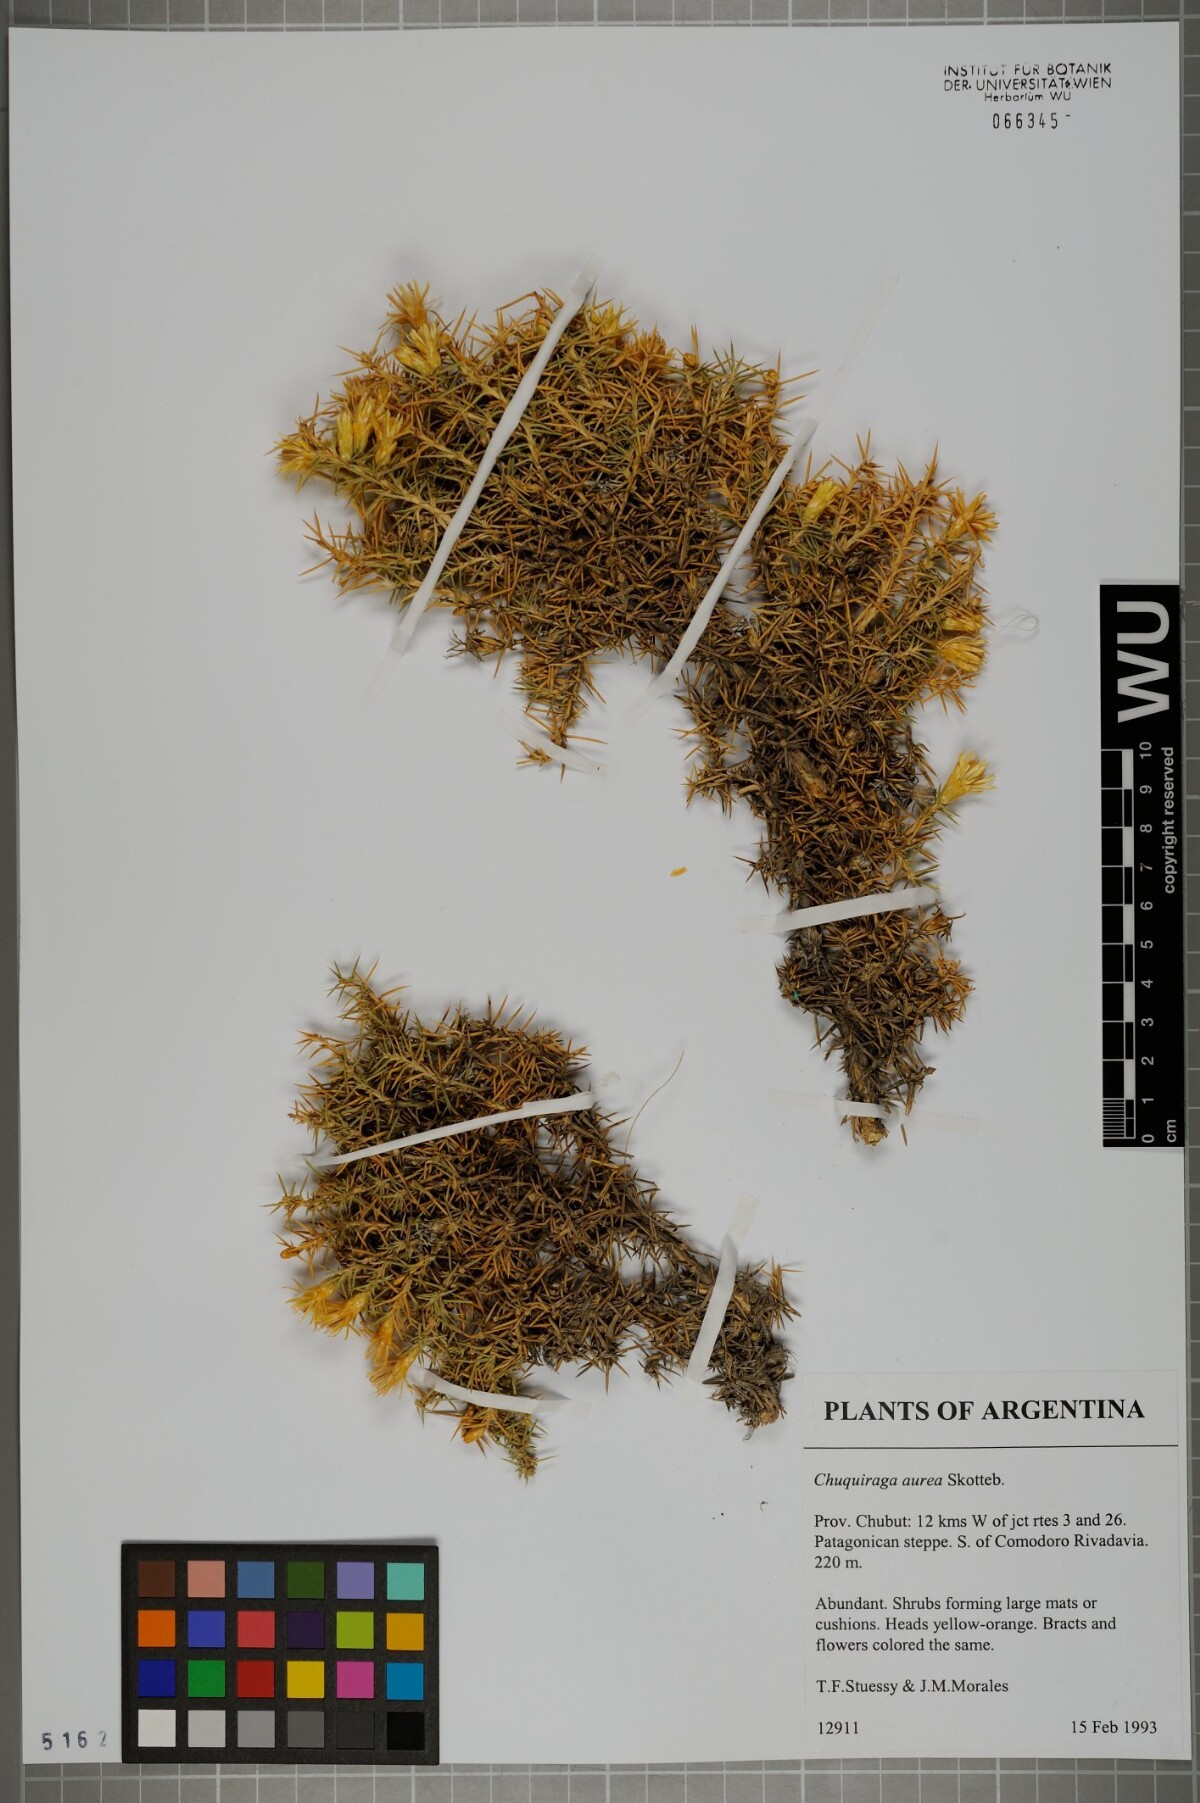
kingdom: Plantae
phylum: Tracheophyta
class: Magnoliopsida
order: Asterales
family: Asteraceae
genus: Chuquiraga
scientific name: Chuquiraga aurea
